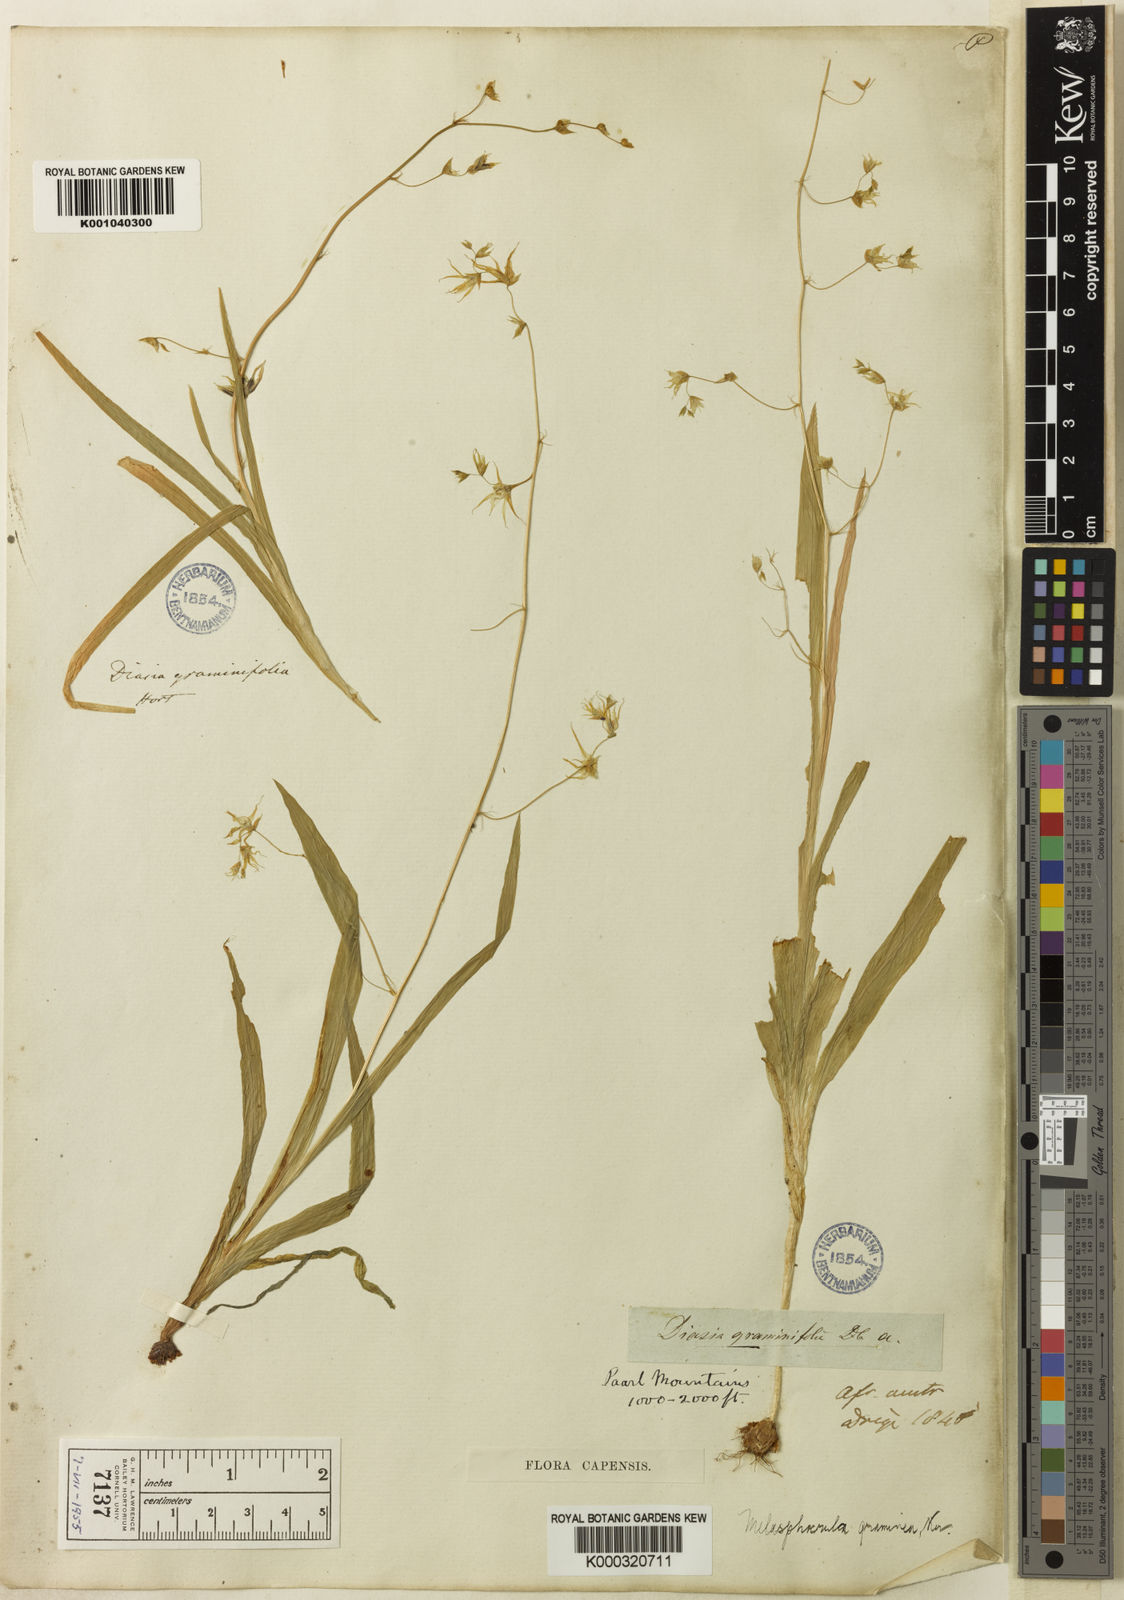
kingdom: Plantae
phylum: Tracheophyta
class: Liliopsida
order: Asparagales
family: Iridaceae
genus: Melasphaerula
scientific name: Melasphaerula graminea
